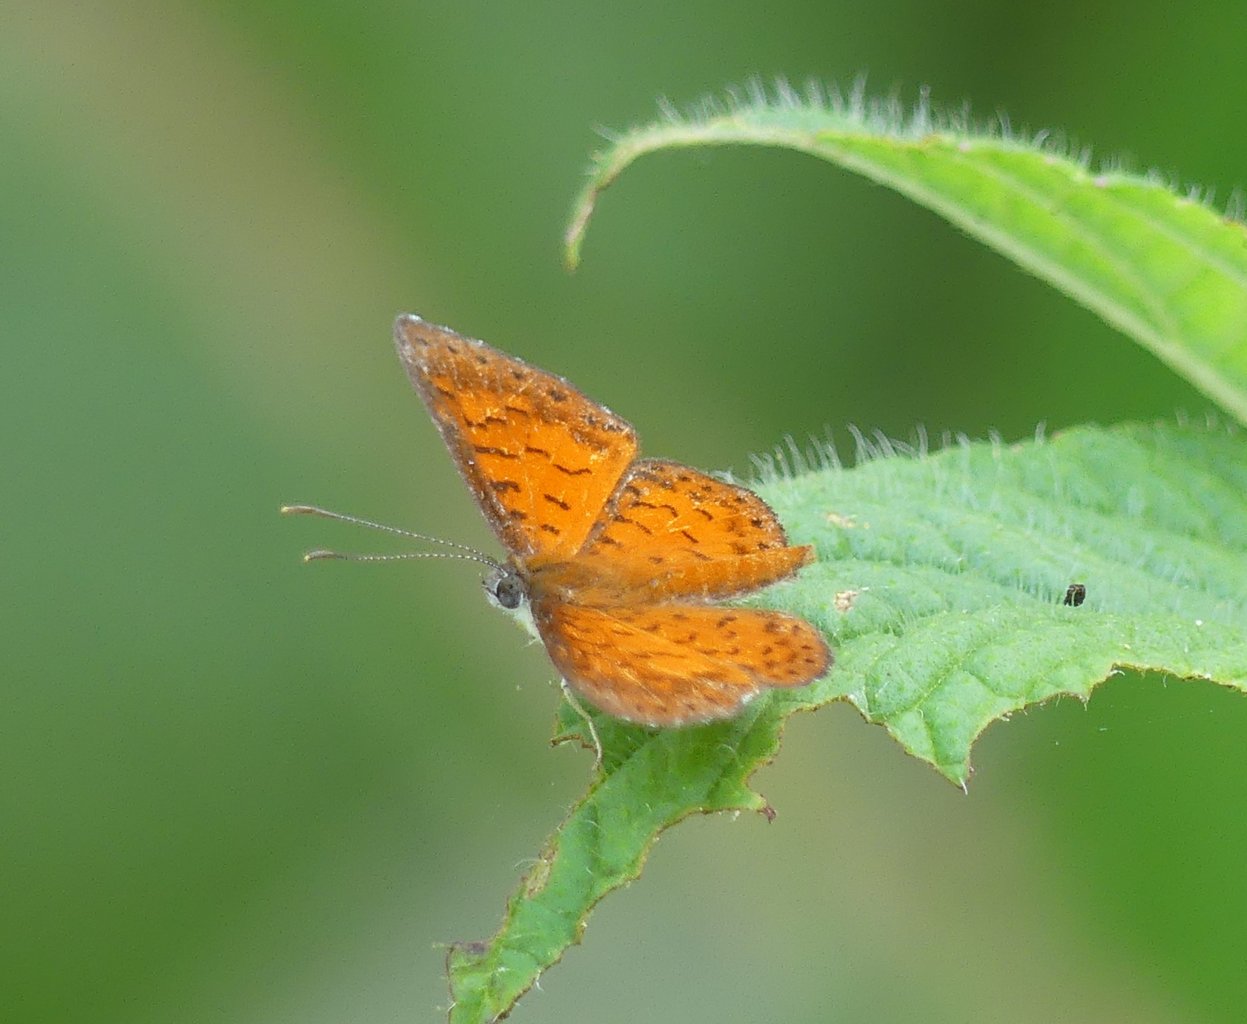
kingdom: Animalia
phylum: Arthropoda
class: Insecta
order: Lepidoptera
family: Riodinidae
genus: Polystichtis
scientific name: Polystichtis lucianus
